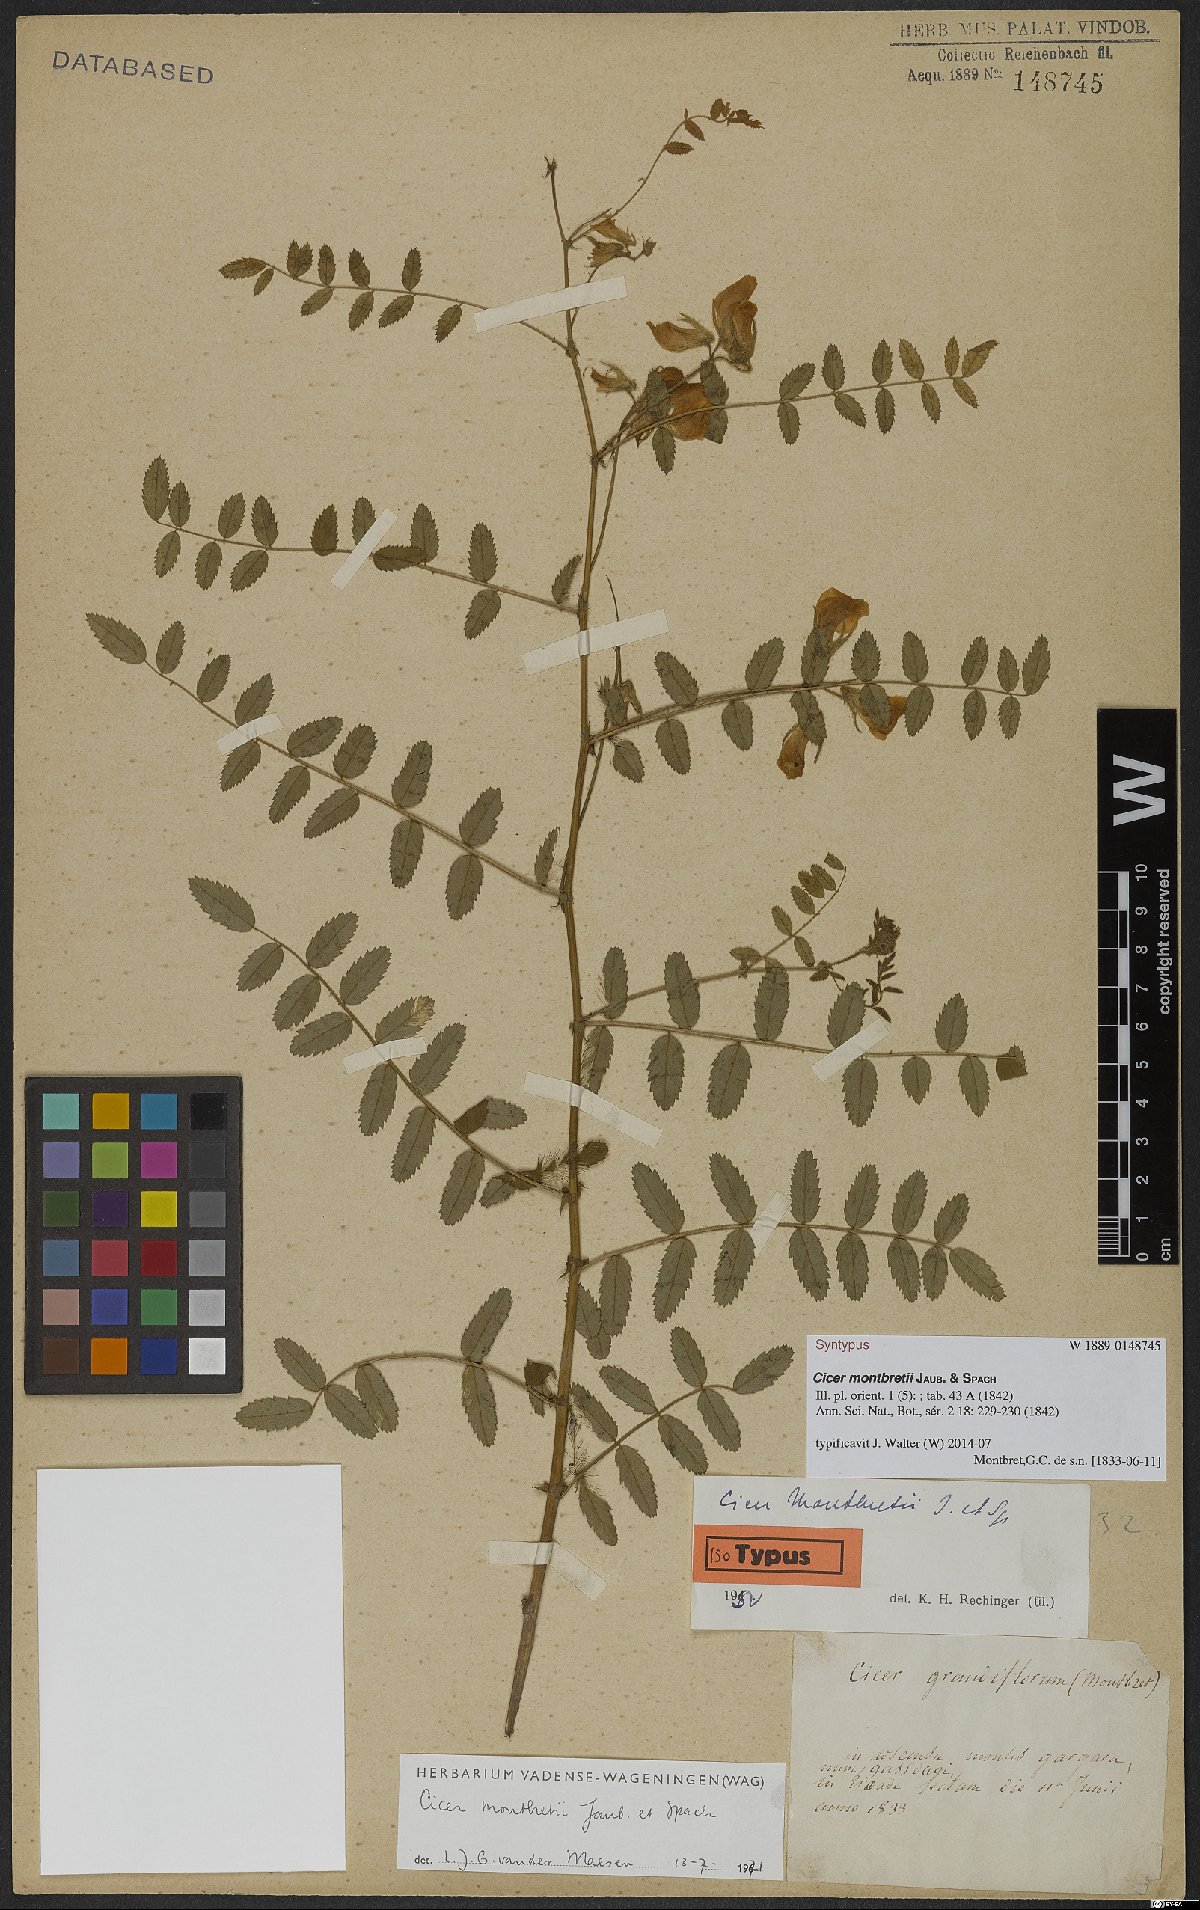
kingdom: Plantae
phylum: Tracheophyta
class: Magnoliopsida
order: Fabales
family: Fabaceae
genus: Cicer
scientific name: Cicer montbretii
